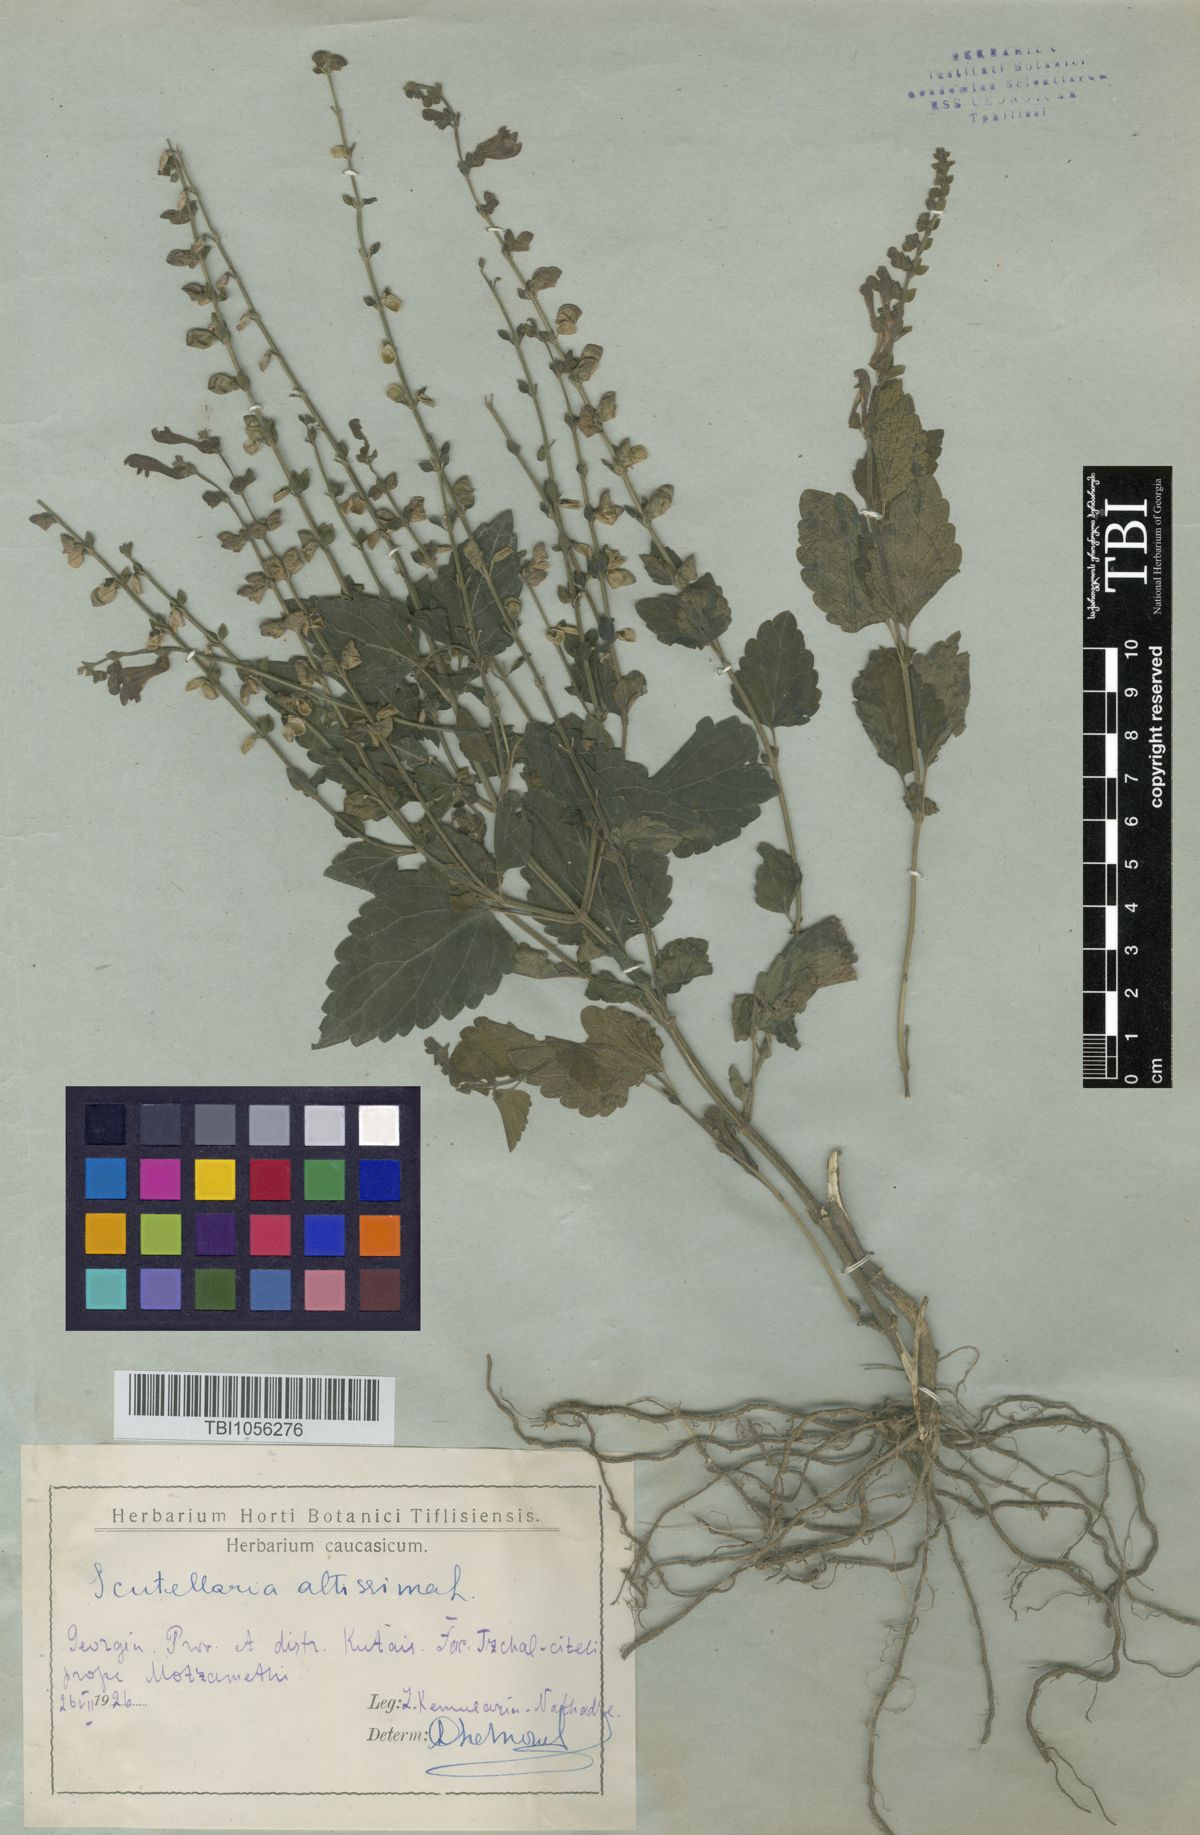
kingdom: Plantae
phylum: Tracheophyta
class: Magnoliopsida
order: Lamiales
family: Lamiaceae
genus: Scutellaria
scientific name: Scutellaria altissima
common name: Somerset skullcap
